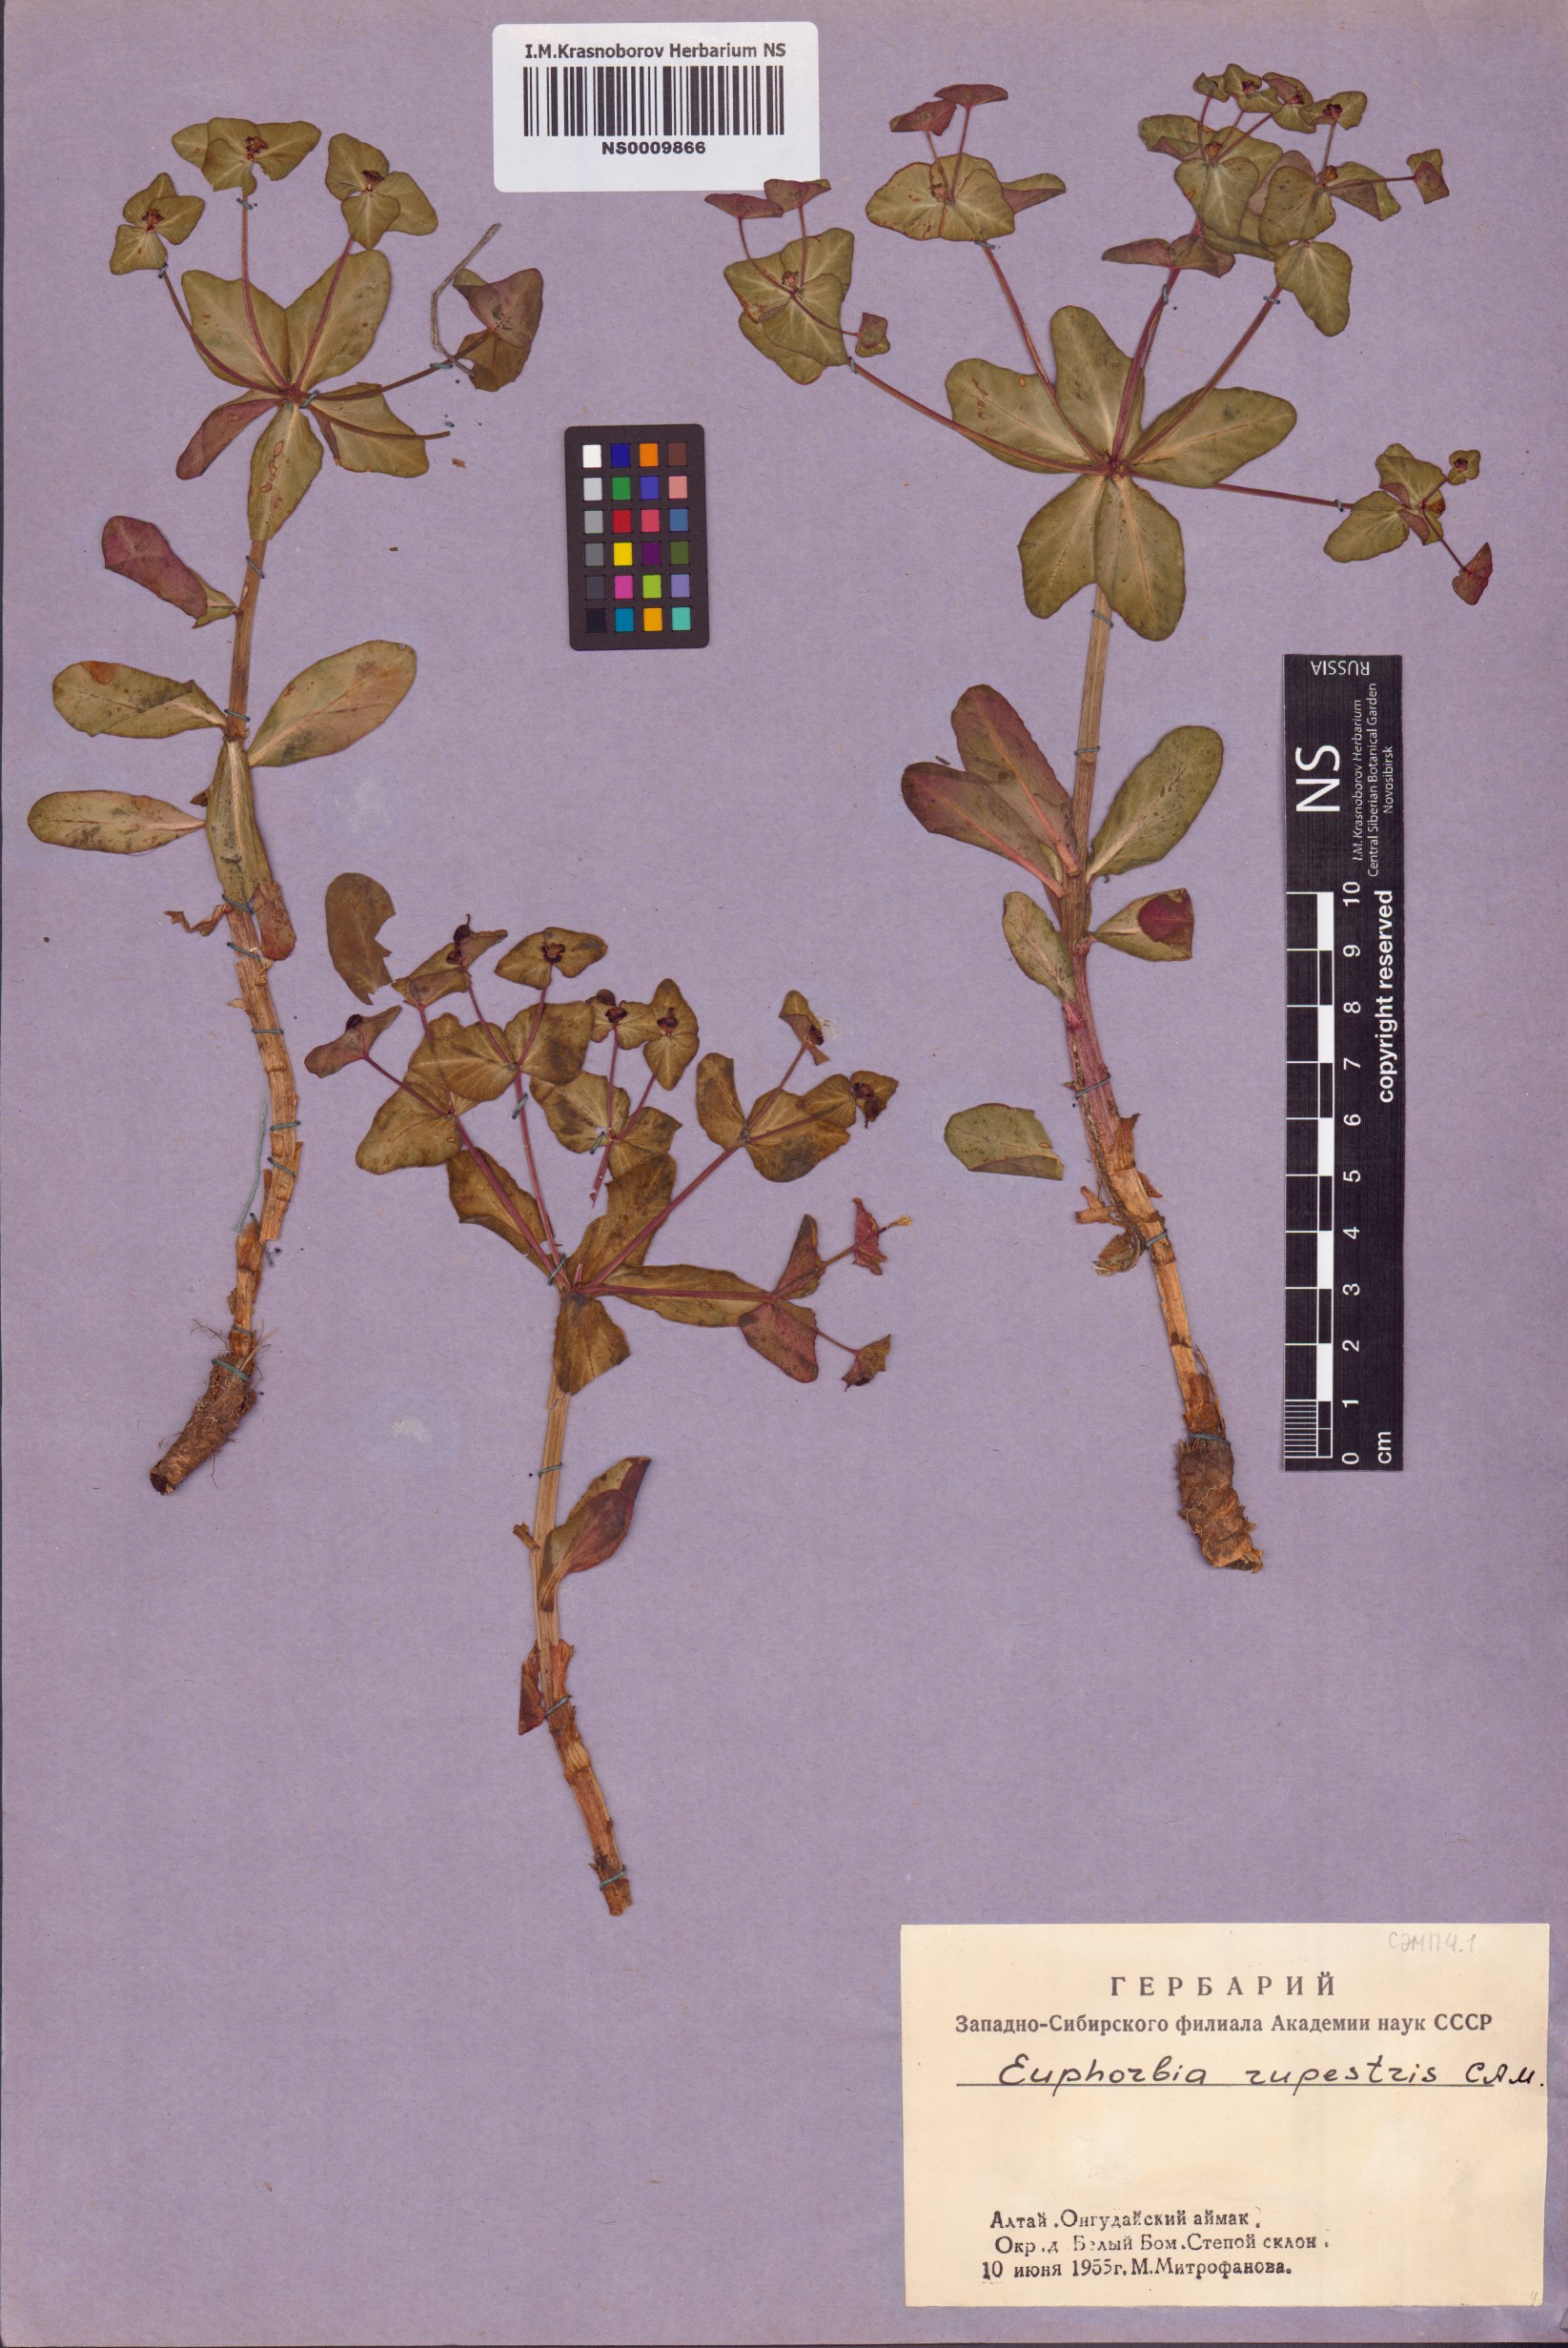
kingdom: Plantae
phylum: Tracheophyta
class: Magnoliopsida
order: Malpighiales
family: Euphorbiaceae
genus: Euphorbia
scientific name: Euphorbia rupestris
